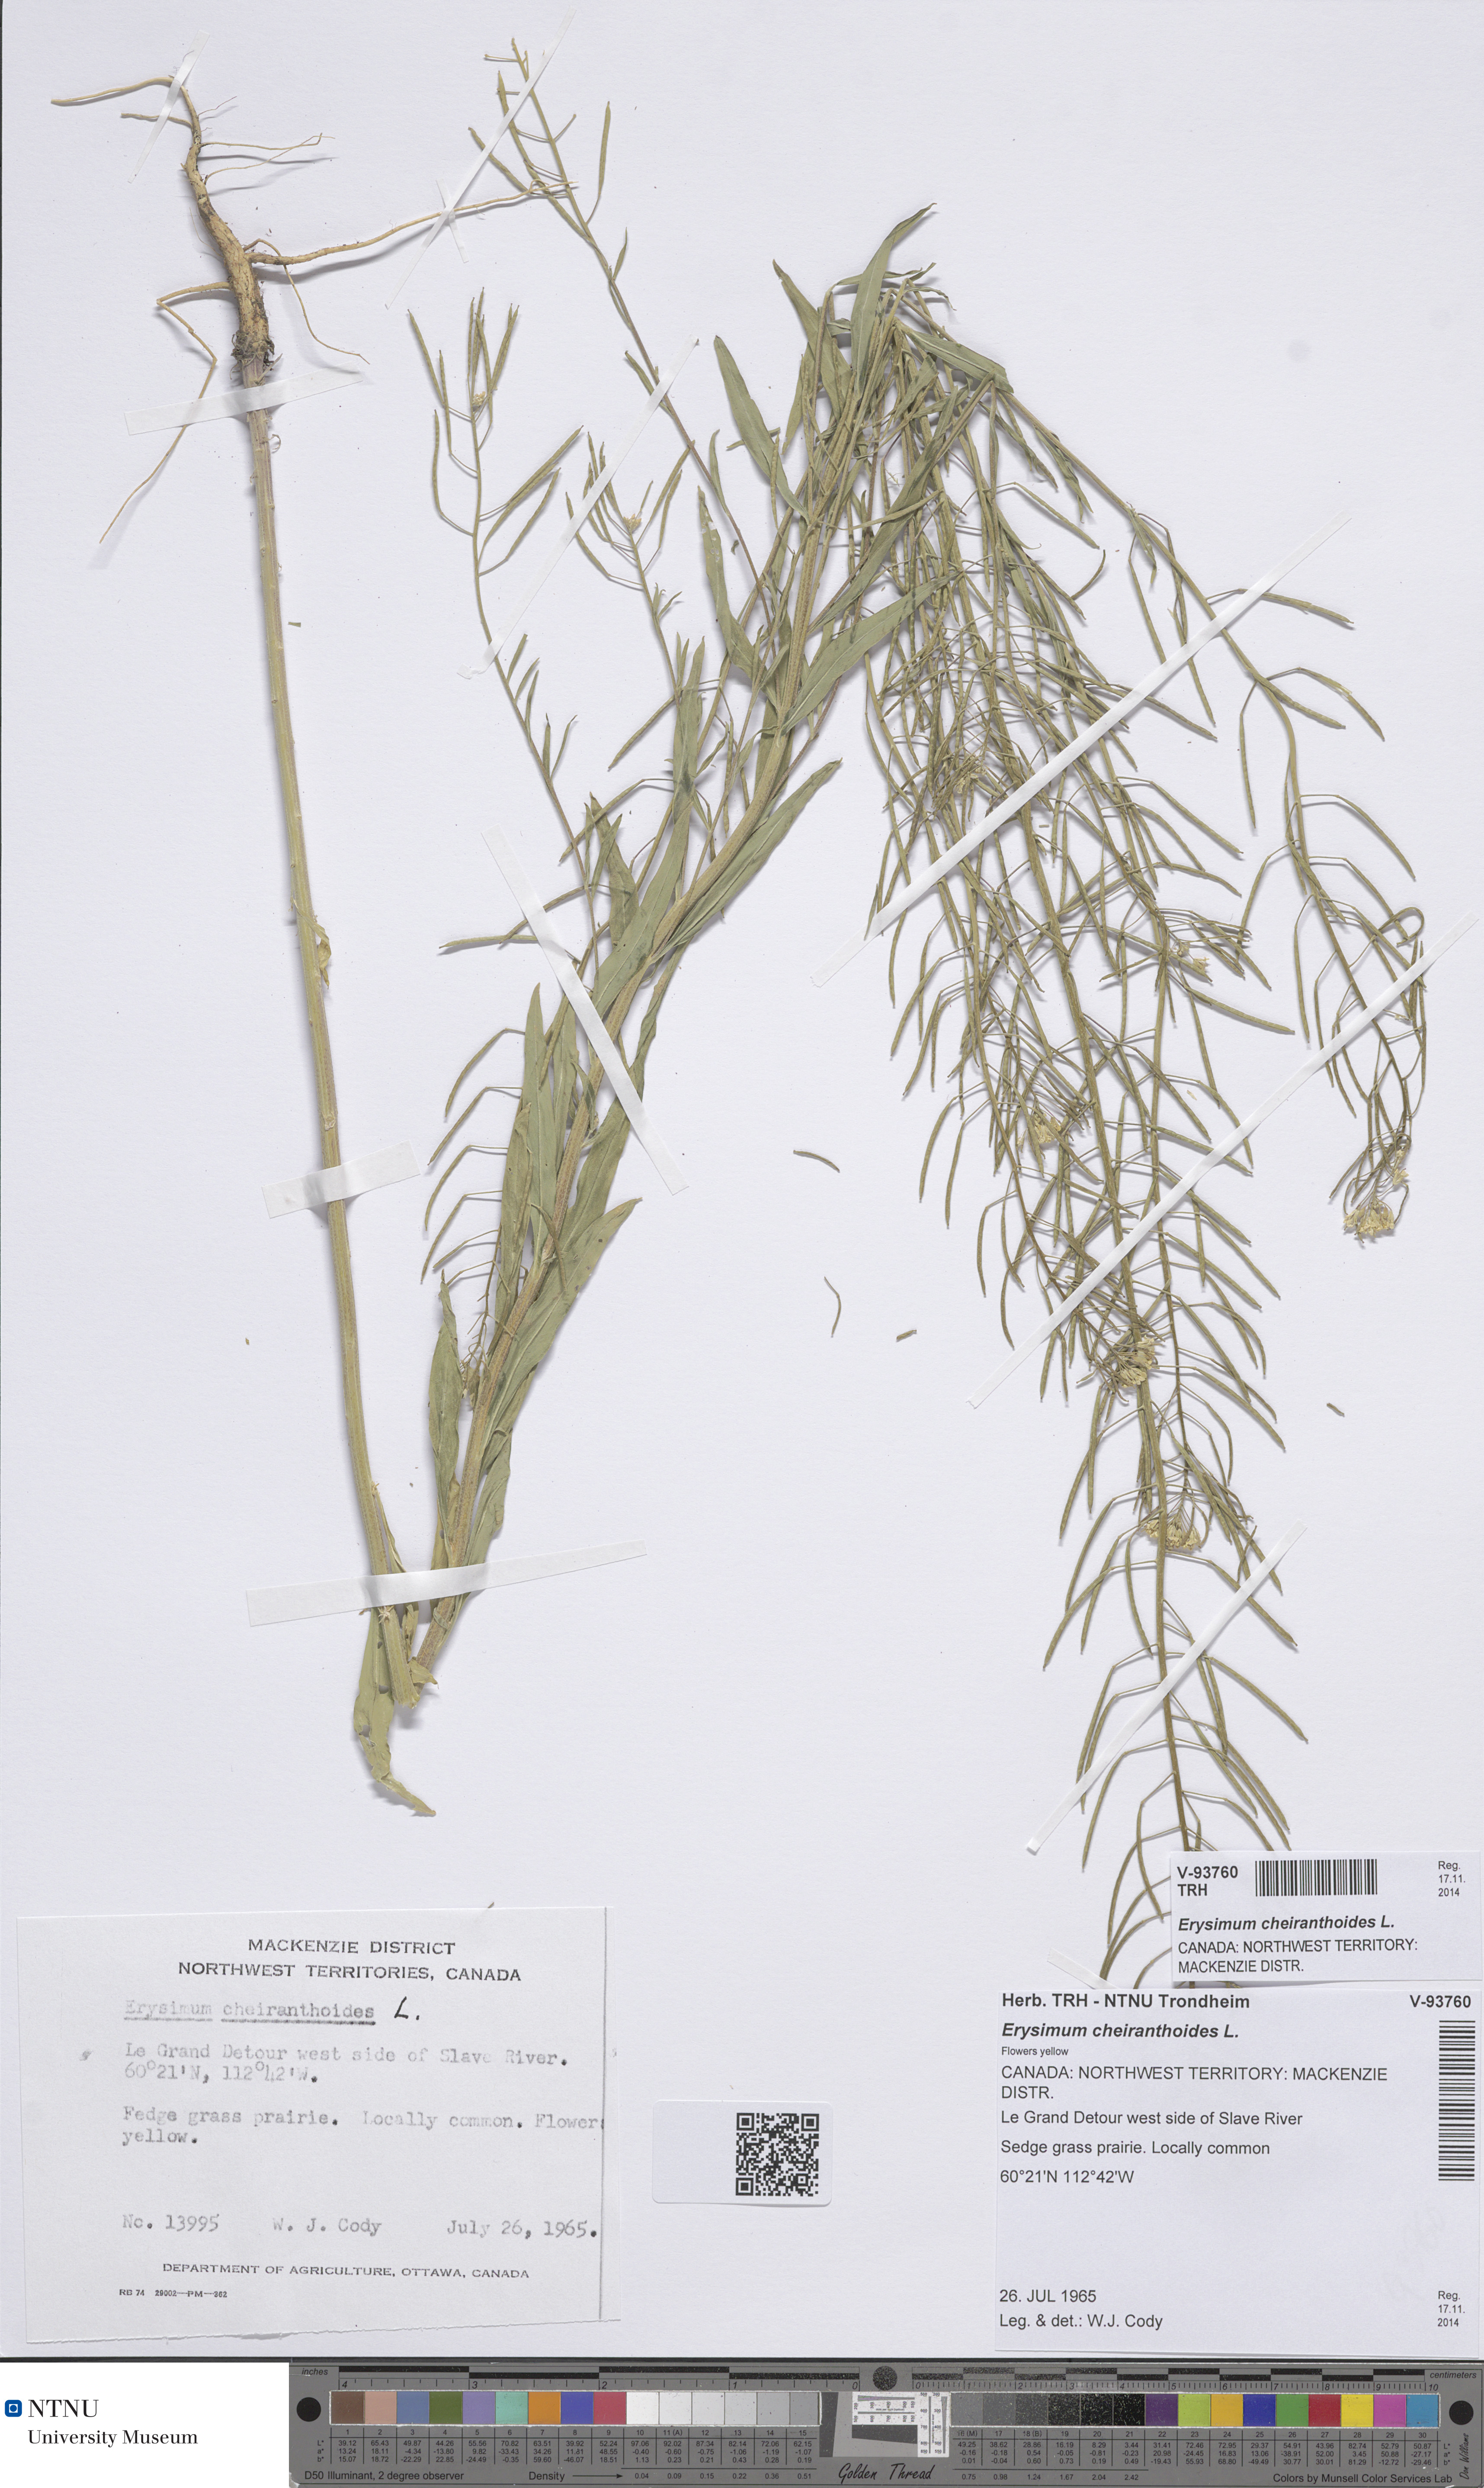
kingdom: Plantae
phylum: Tracheophyta
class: Magnoliopsida
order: Brassicales
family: Brassicaceae
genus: Erysimum
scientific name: Erysimum cheiranthoides
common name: Treacle mustard
